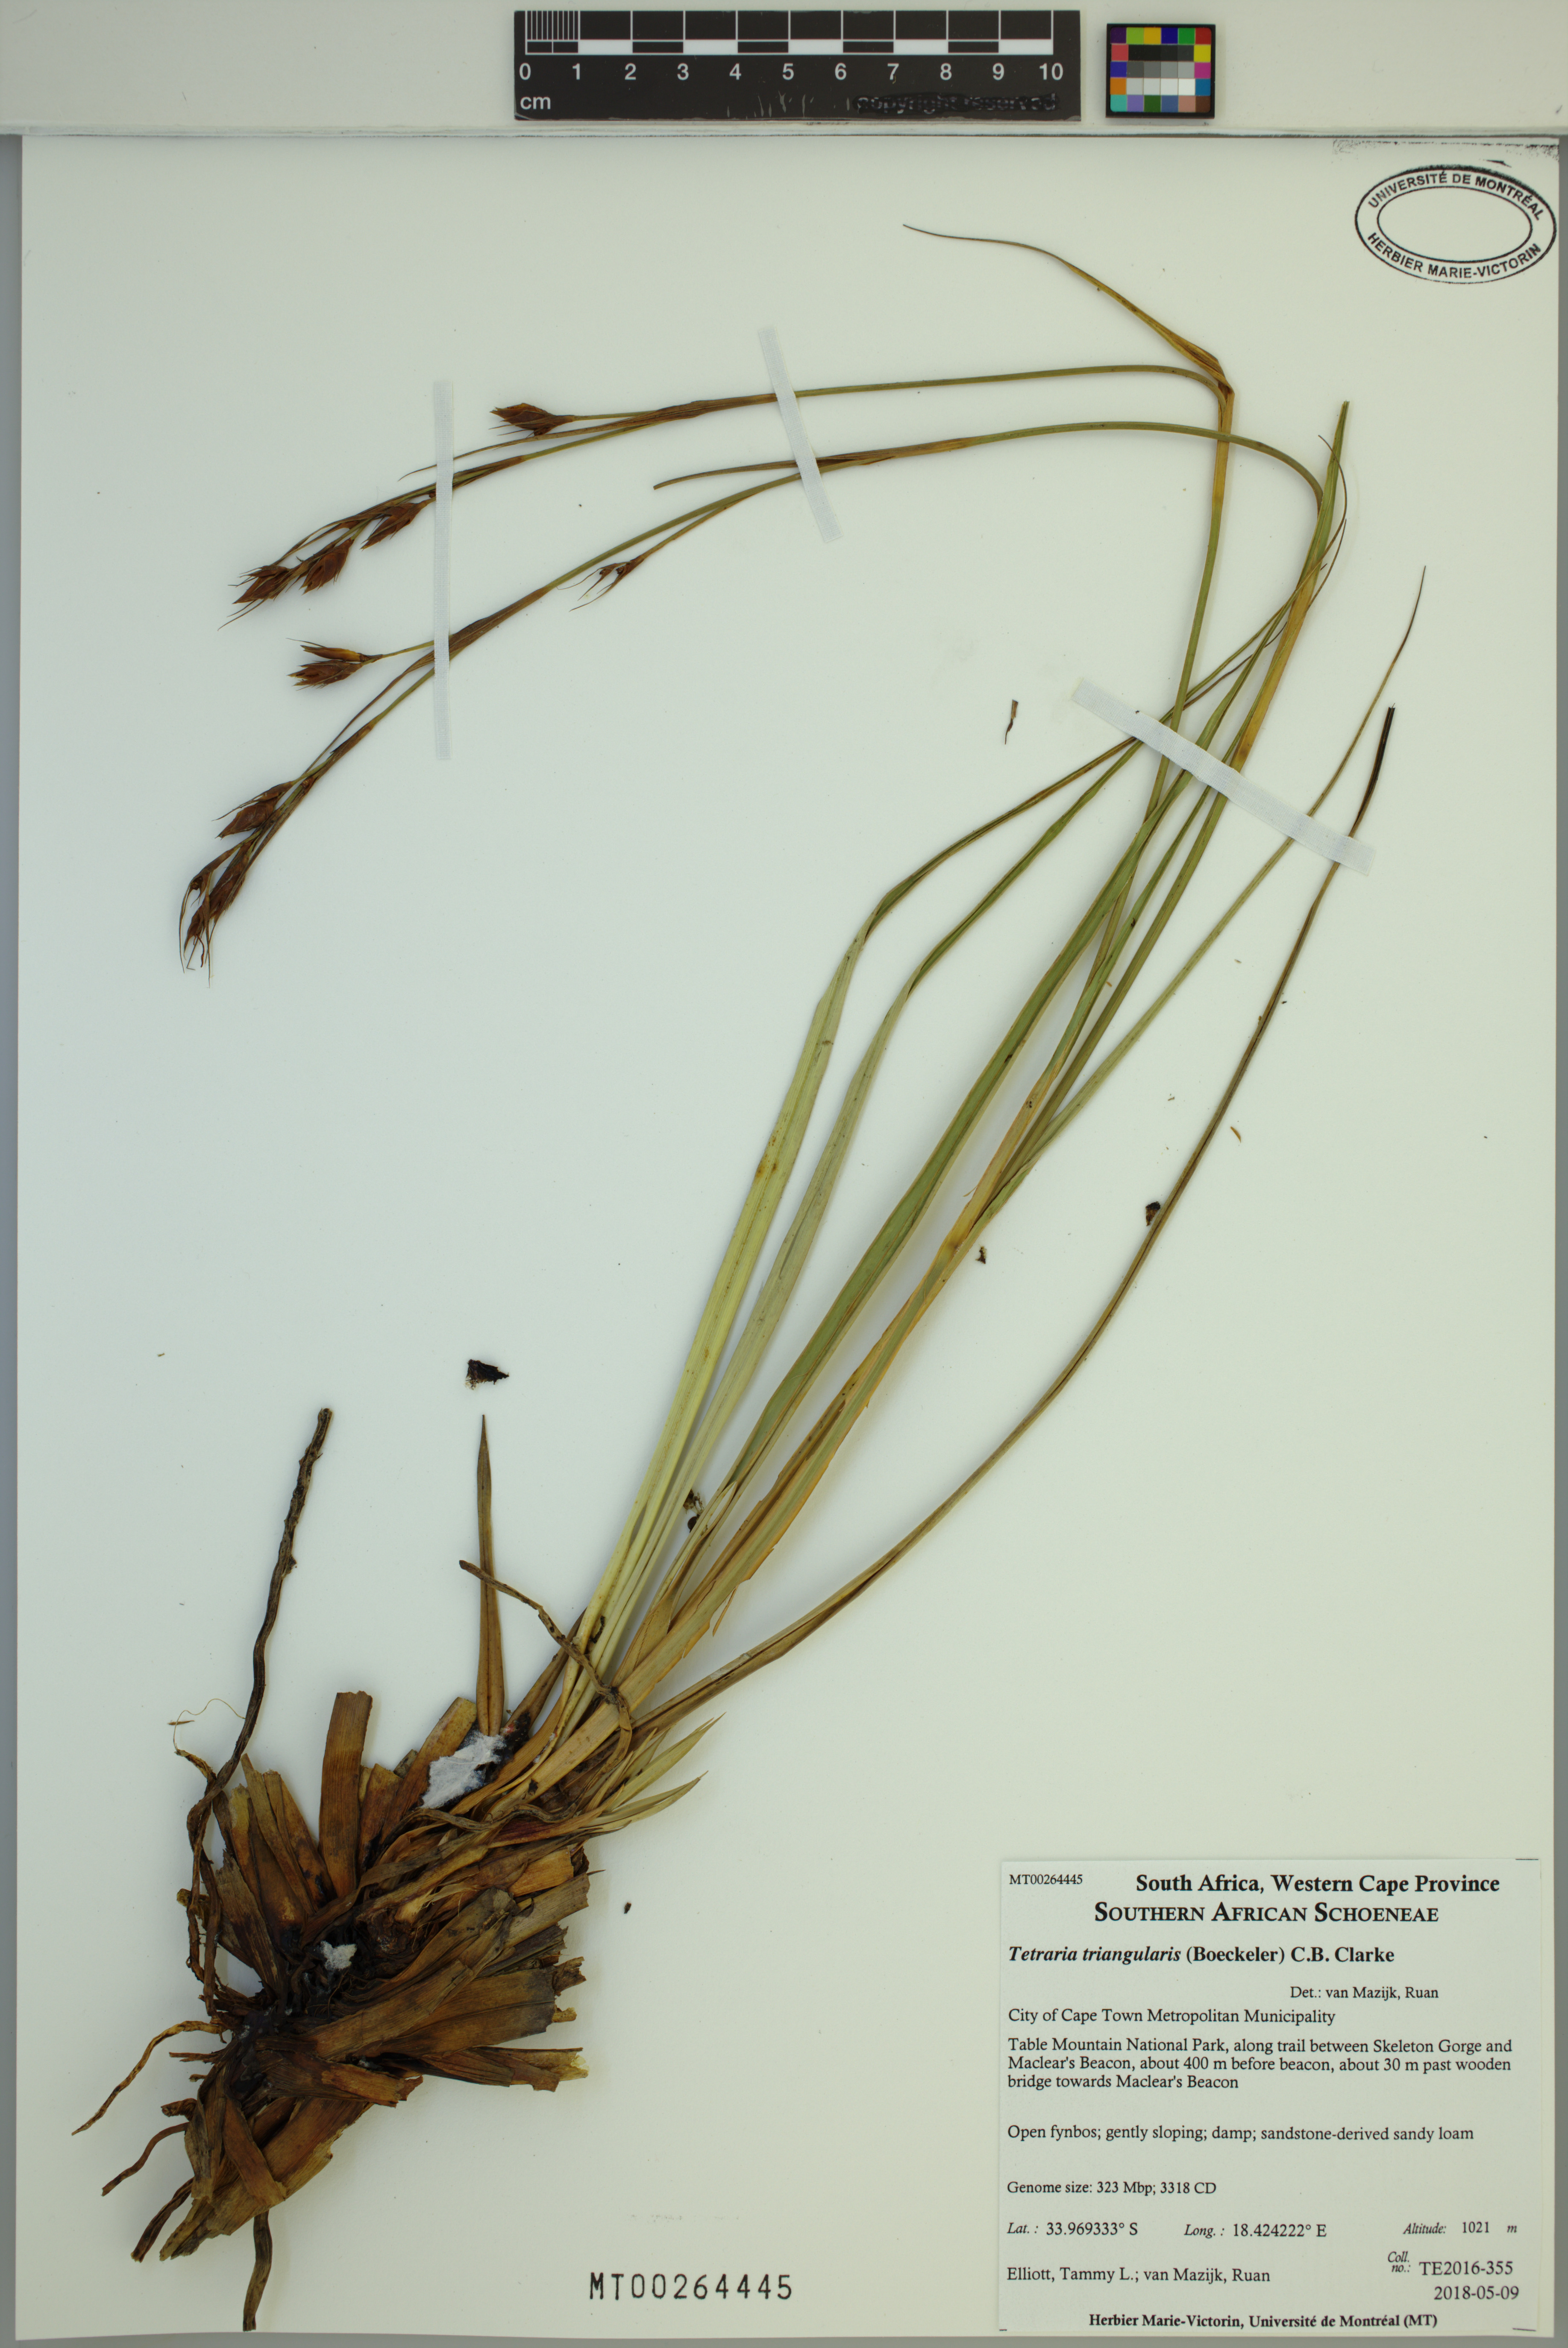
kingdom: Plantae
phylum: Tracheophyta
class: Liliopsida
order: Poales
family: Cyperaceae
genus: Tetraria
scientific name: Tetraria triangularis
